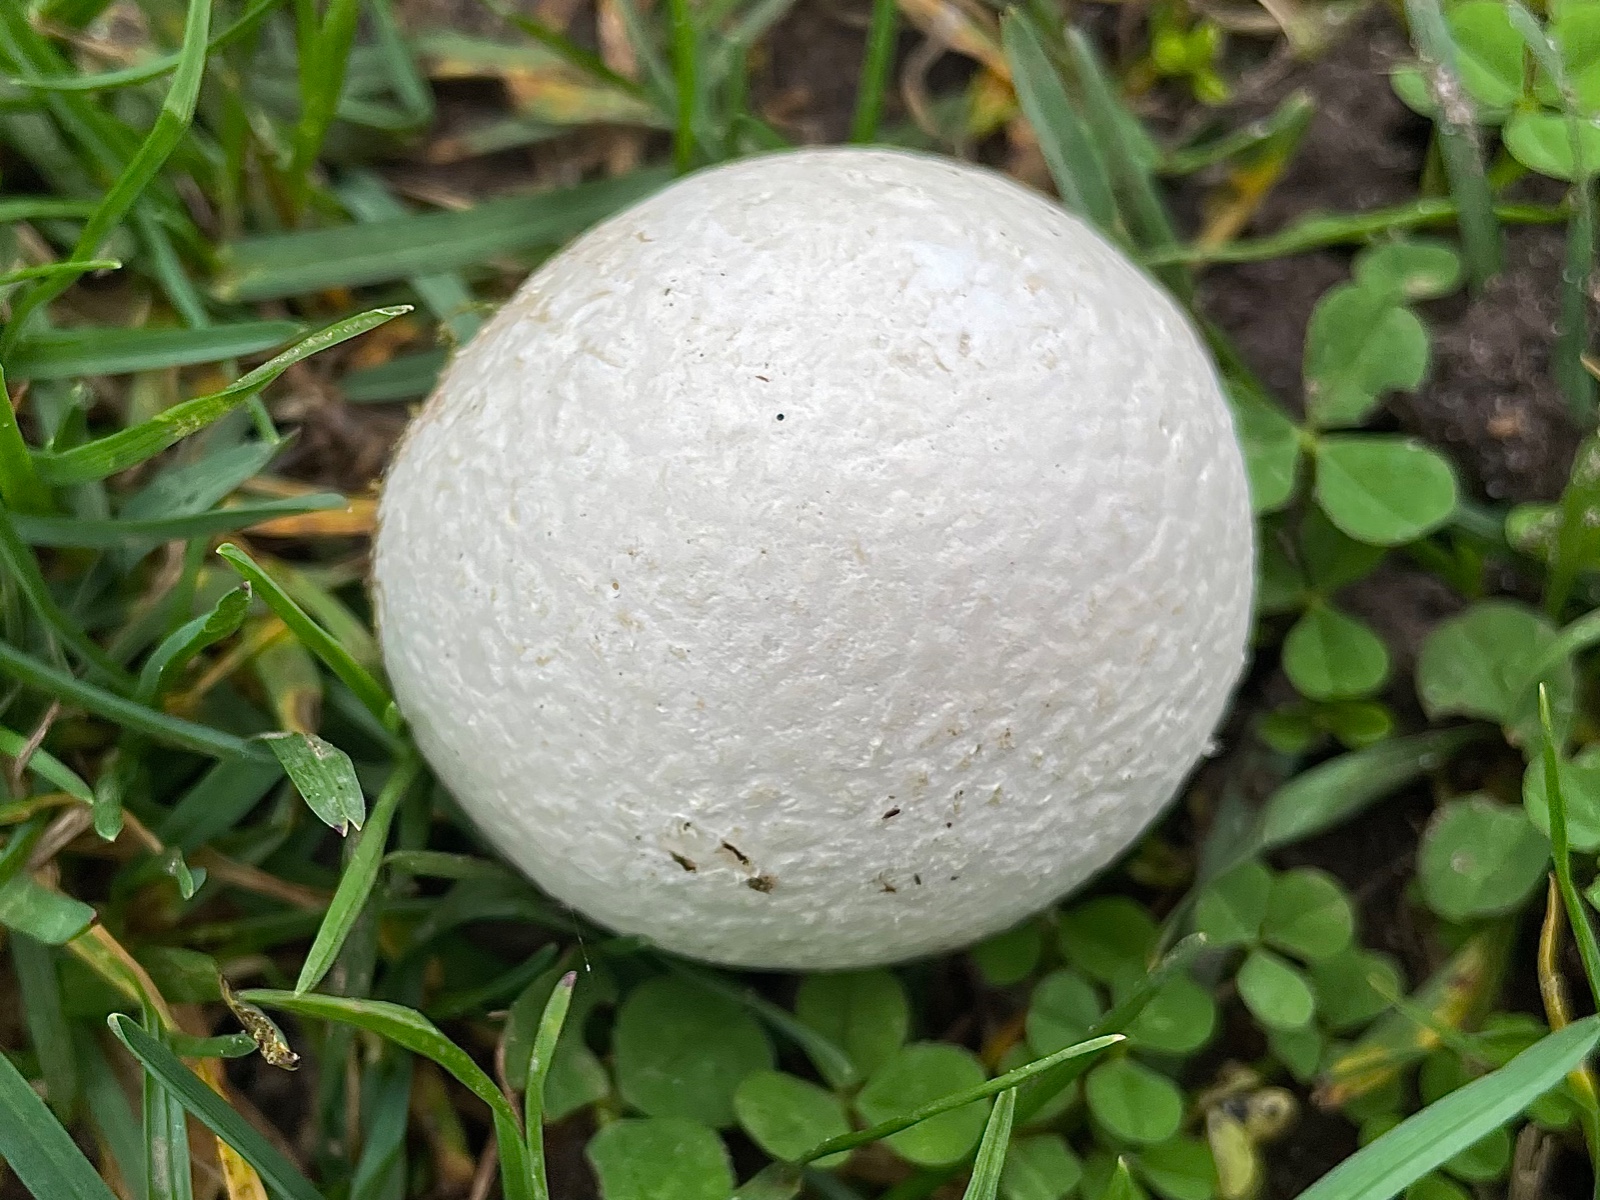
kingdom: Fungi
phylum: Basidiomycota
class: Agaricomycetes
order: Agaricales
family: Lycoperdaceae
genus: Bovista
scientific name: Bovista
